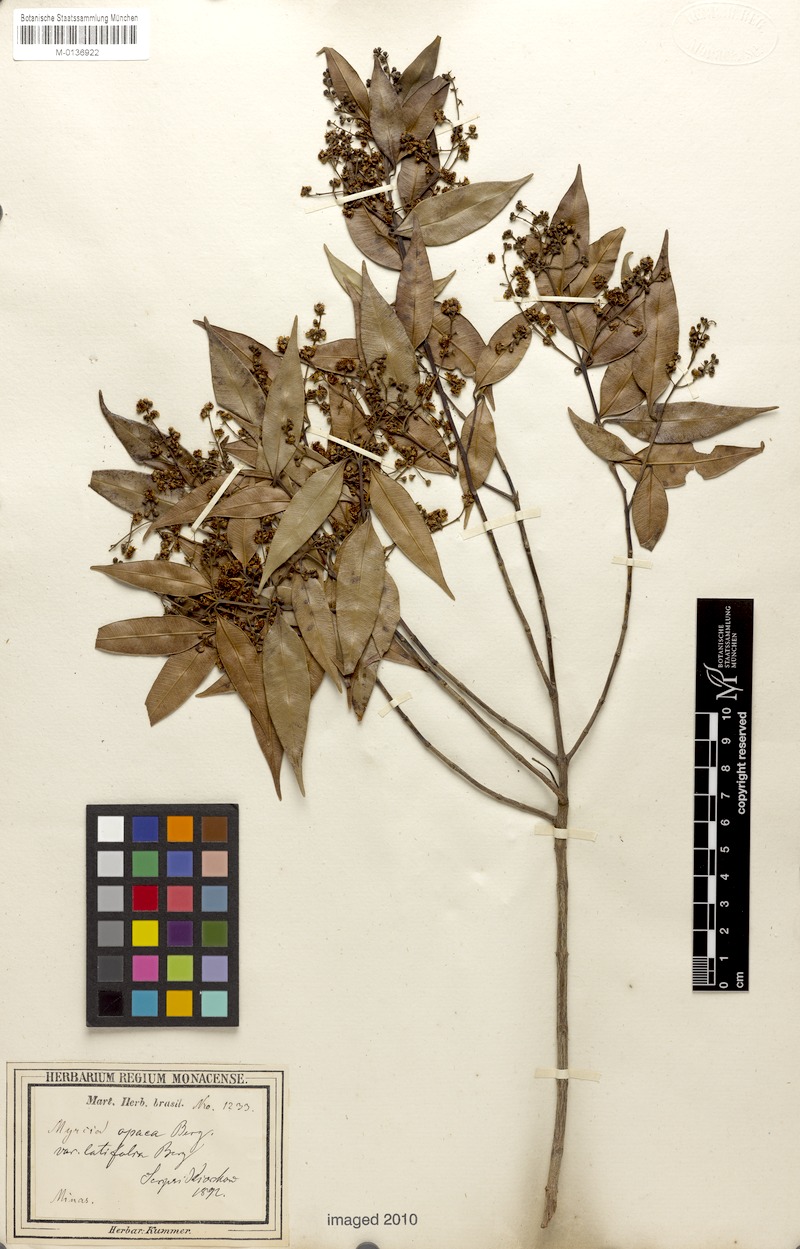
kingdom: Plantae
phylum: Tracheophyta
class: Magnoliopsida
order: Myrtales
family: Myrtaceae
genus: Myrcia
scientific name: Myrcia splendens
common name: Surinam cherry
